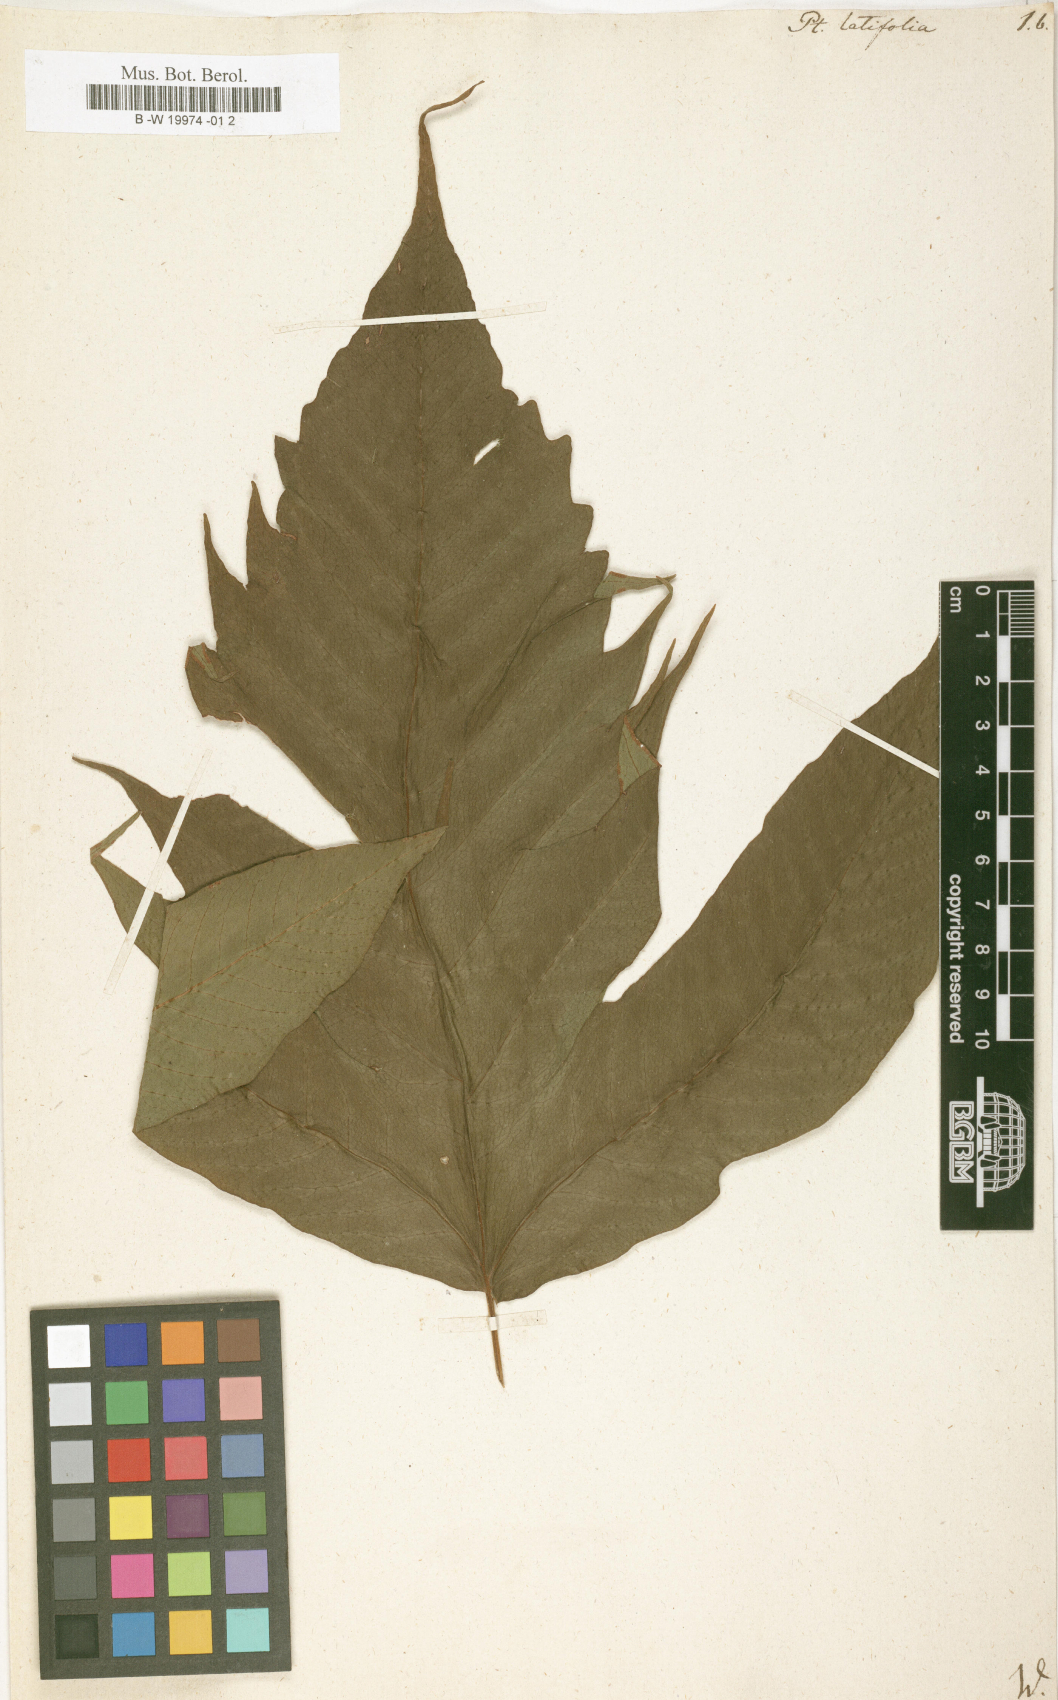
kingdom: Plantae
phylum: Tracheophyta
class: Polypodiopsida
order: Polypodiales
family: Tectariaceae
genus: Tectaria
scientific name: Tectaria amphiblestra
